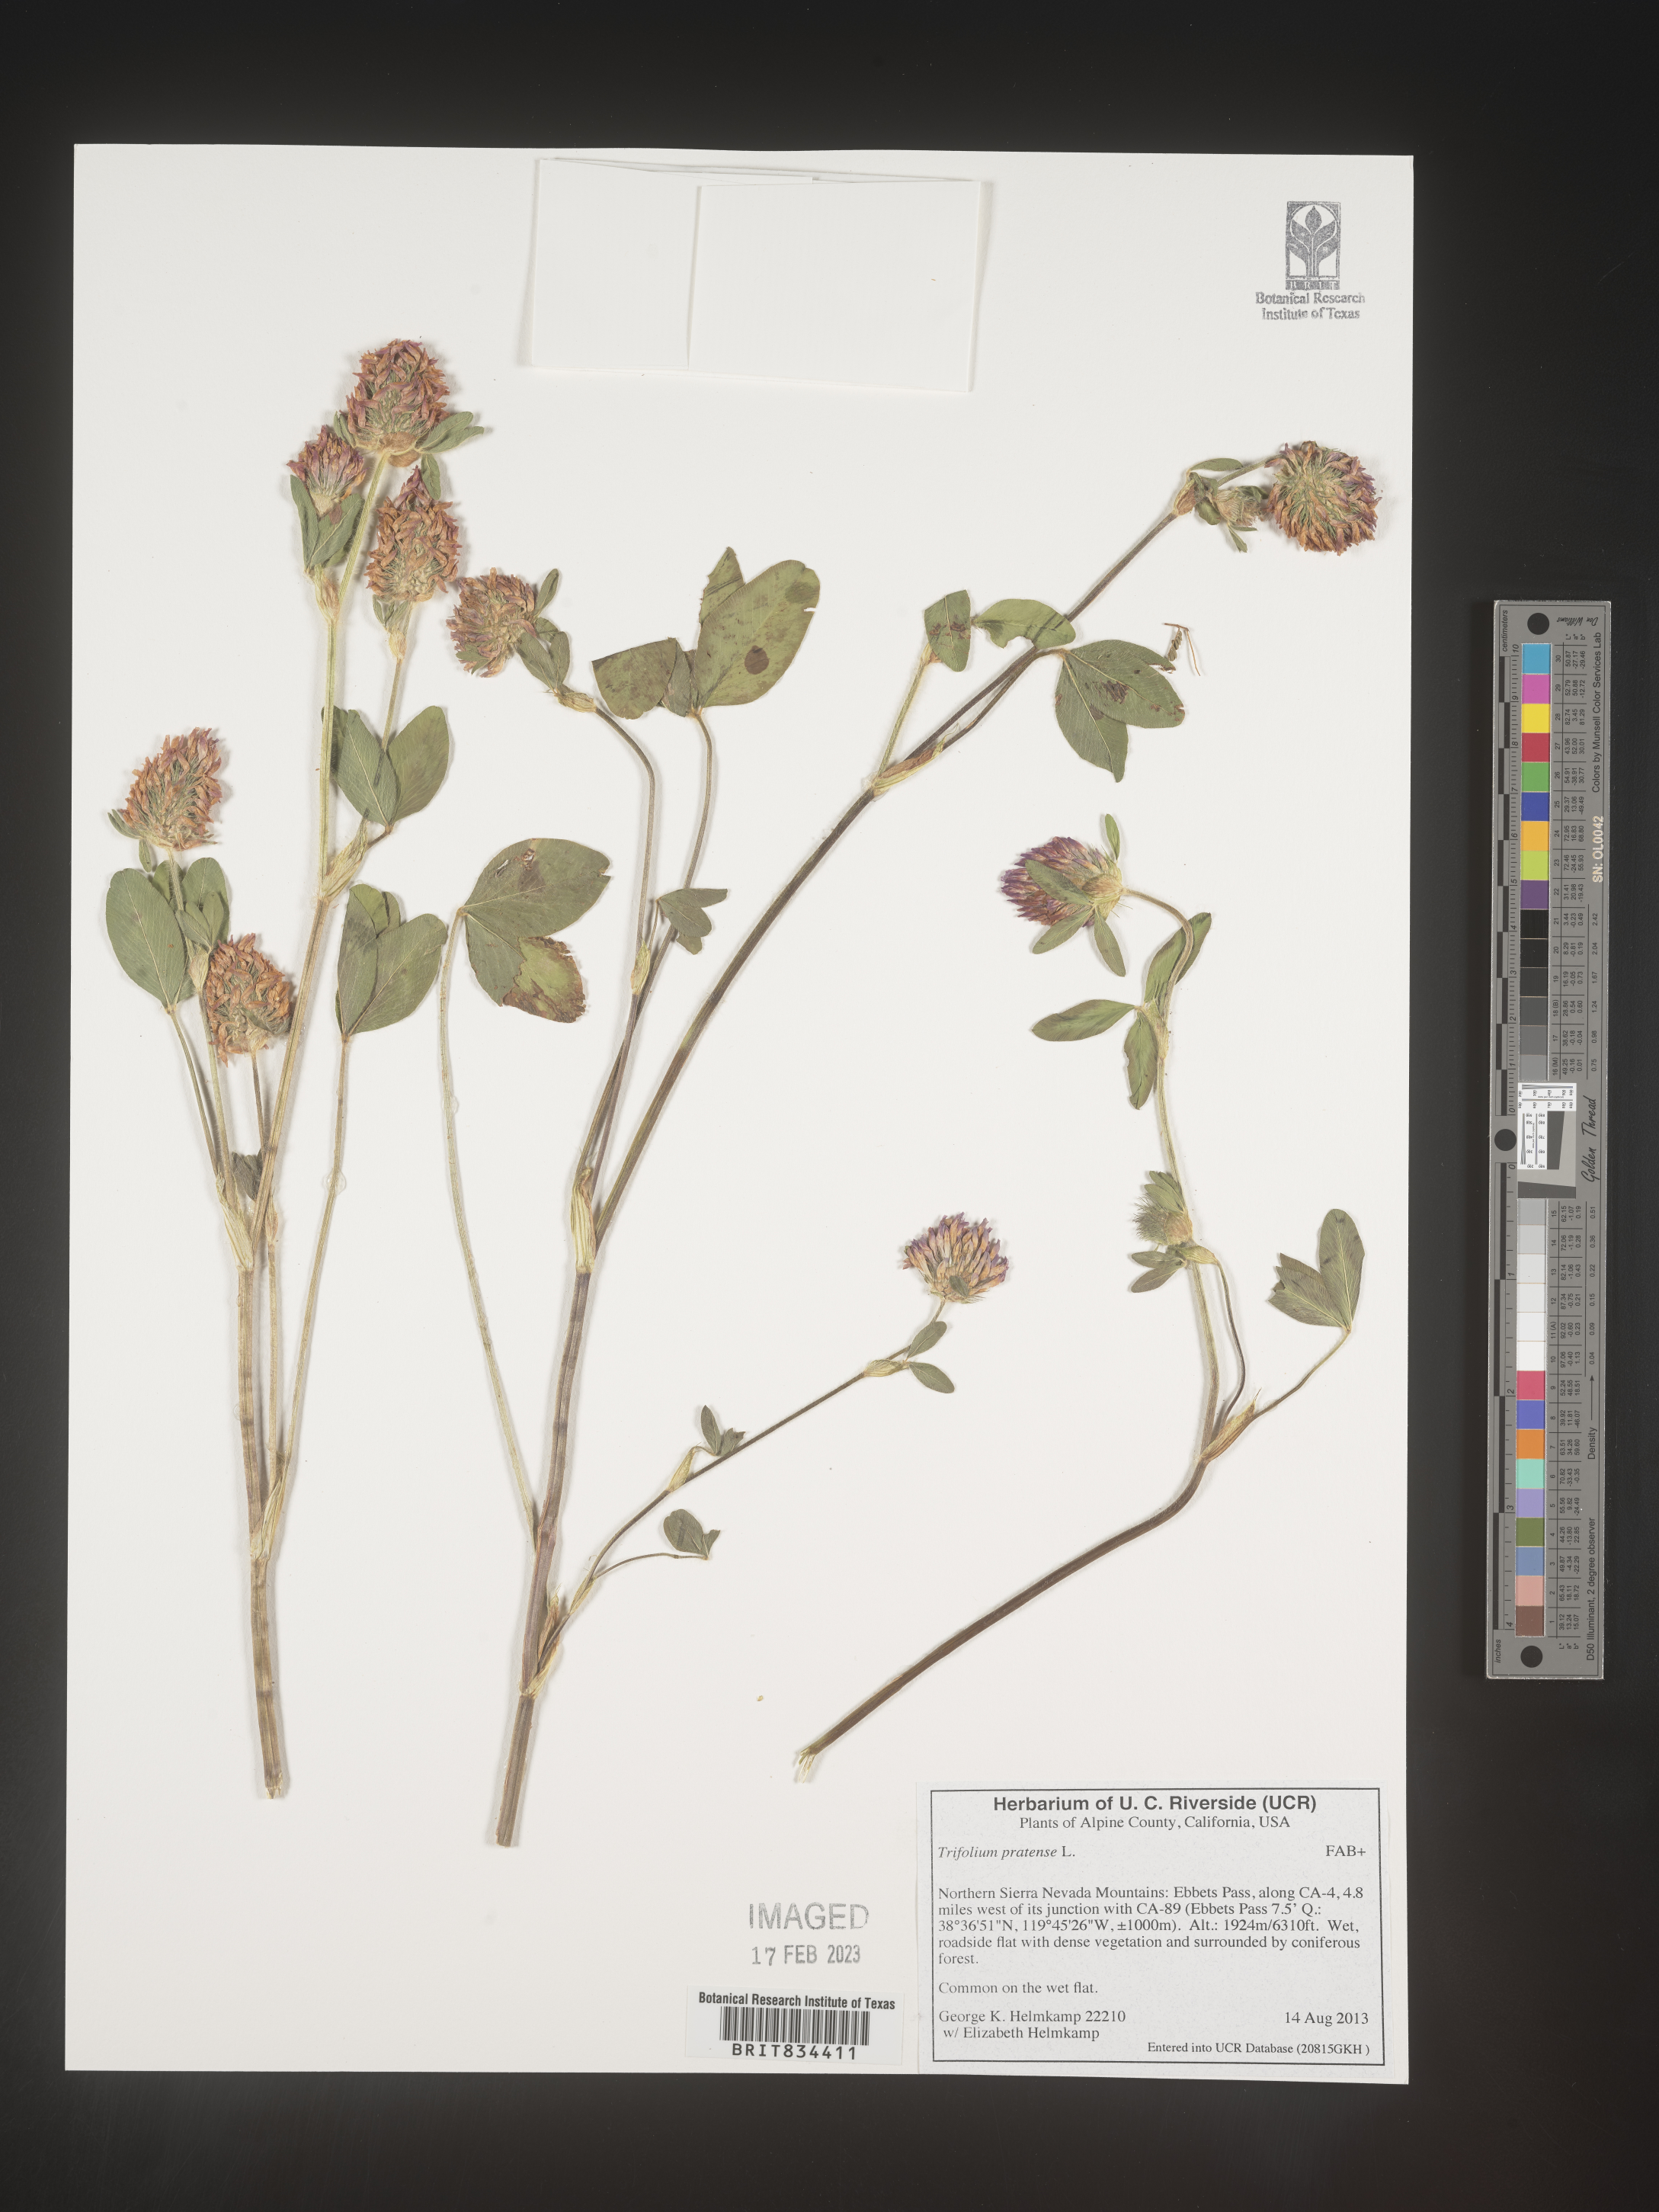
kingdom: Plantae
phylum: Tracheophyta
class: Magnoliopsida
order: Fabales
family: Fabaceae
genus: Trifolium
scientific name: Trifolium pratense
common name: Red clover
